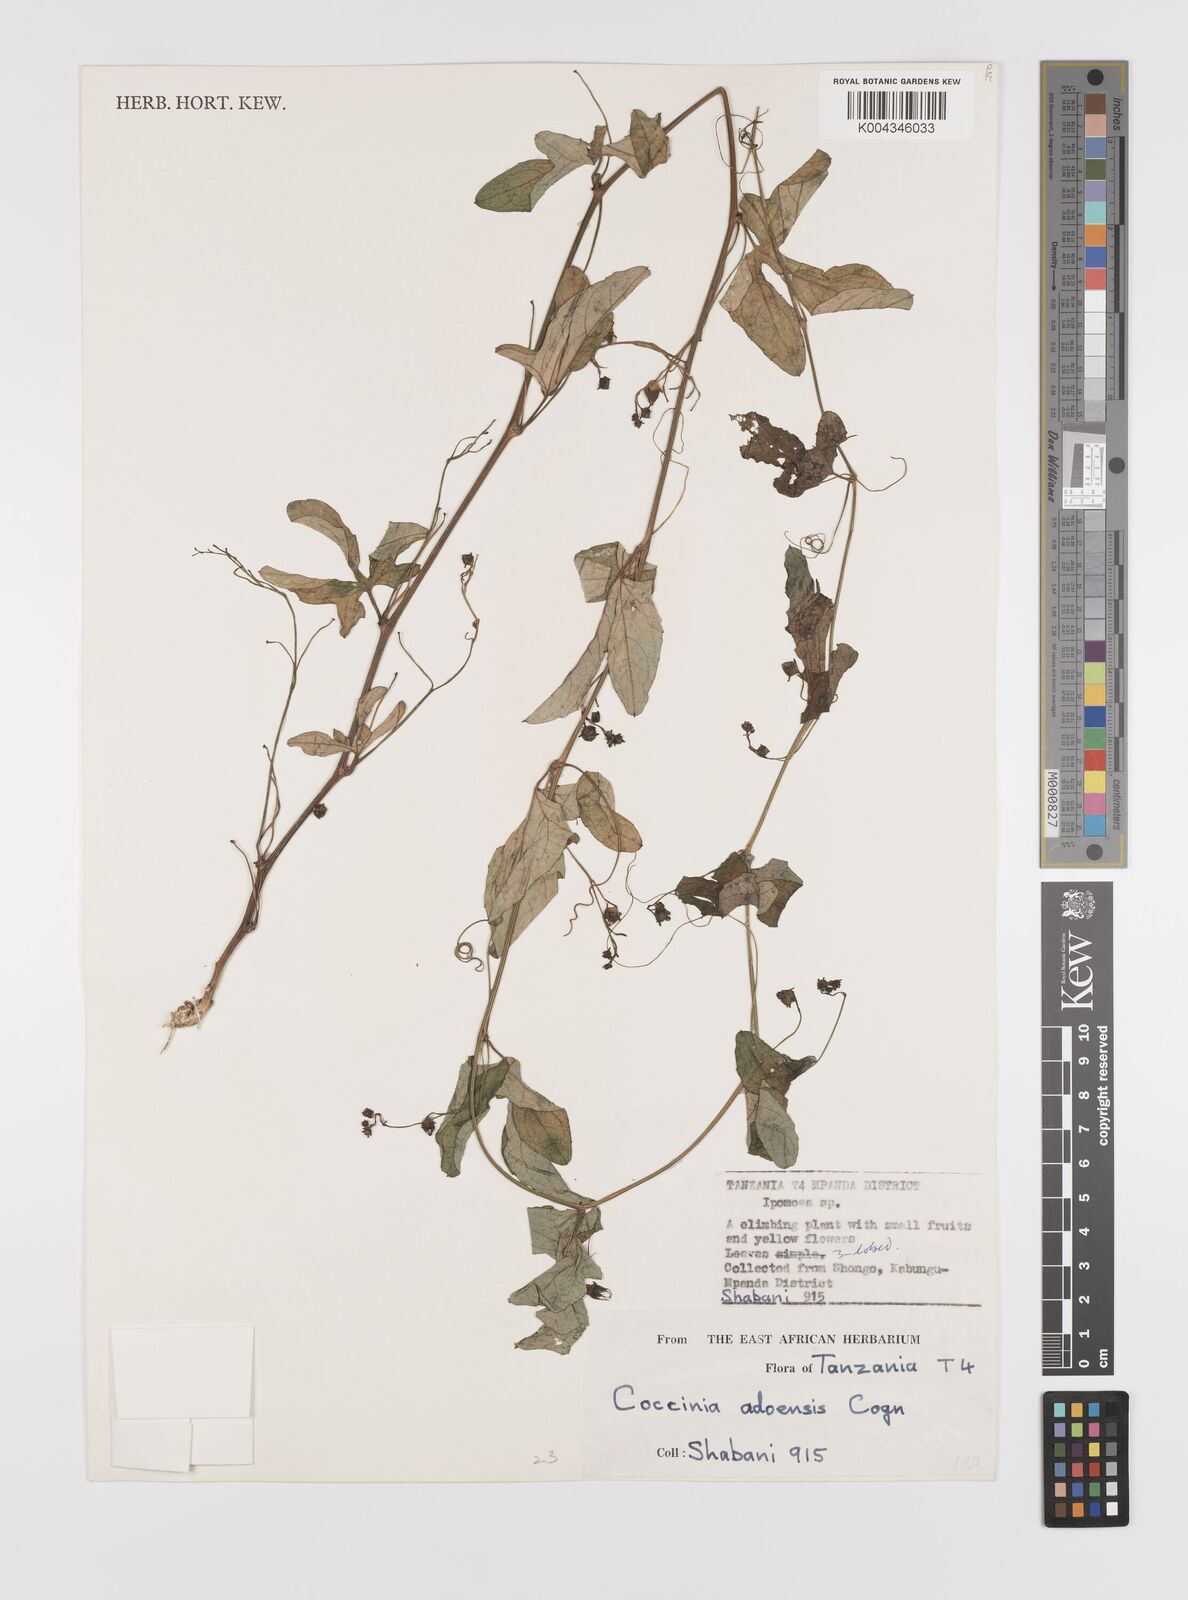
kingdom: Plantae
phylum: Tracheophyta
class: Magnoliopsida
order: Cucurbitales
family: Cucurbitaceae
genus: Coccinia
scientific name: Coccinia adoensis
